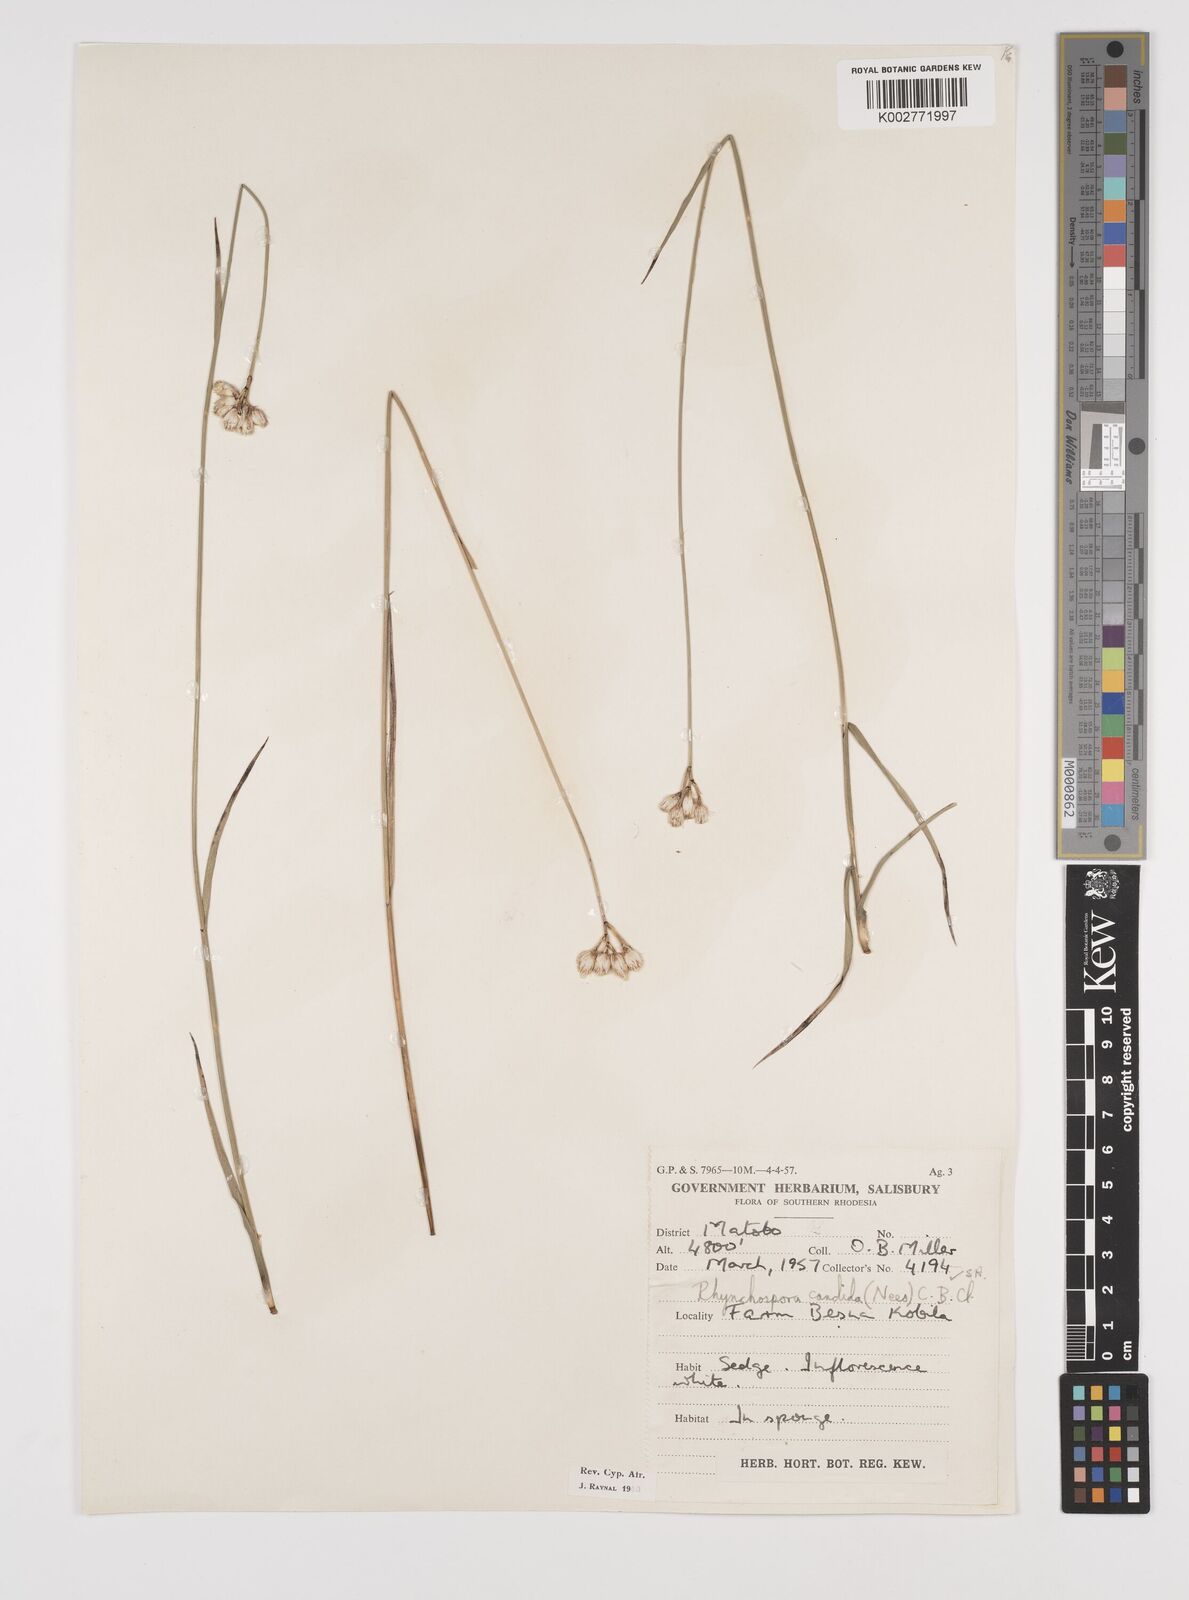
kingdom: Plantae
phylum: Tracheophyta
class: Liliopsida
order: Poales
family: Cyperaceae
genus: Rhynchospora
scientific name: Rhynchospora candida
